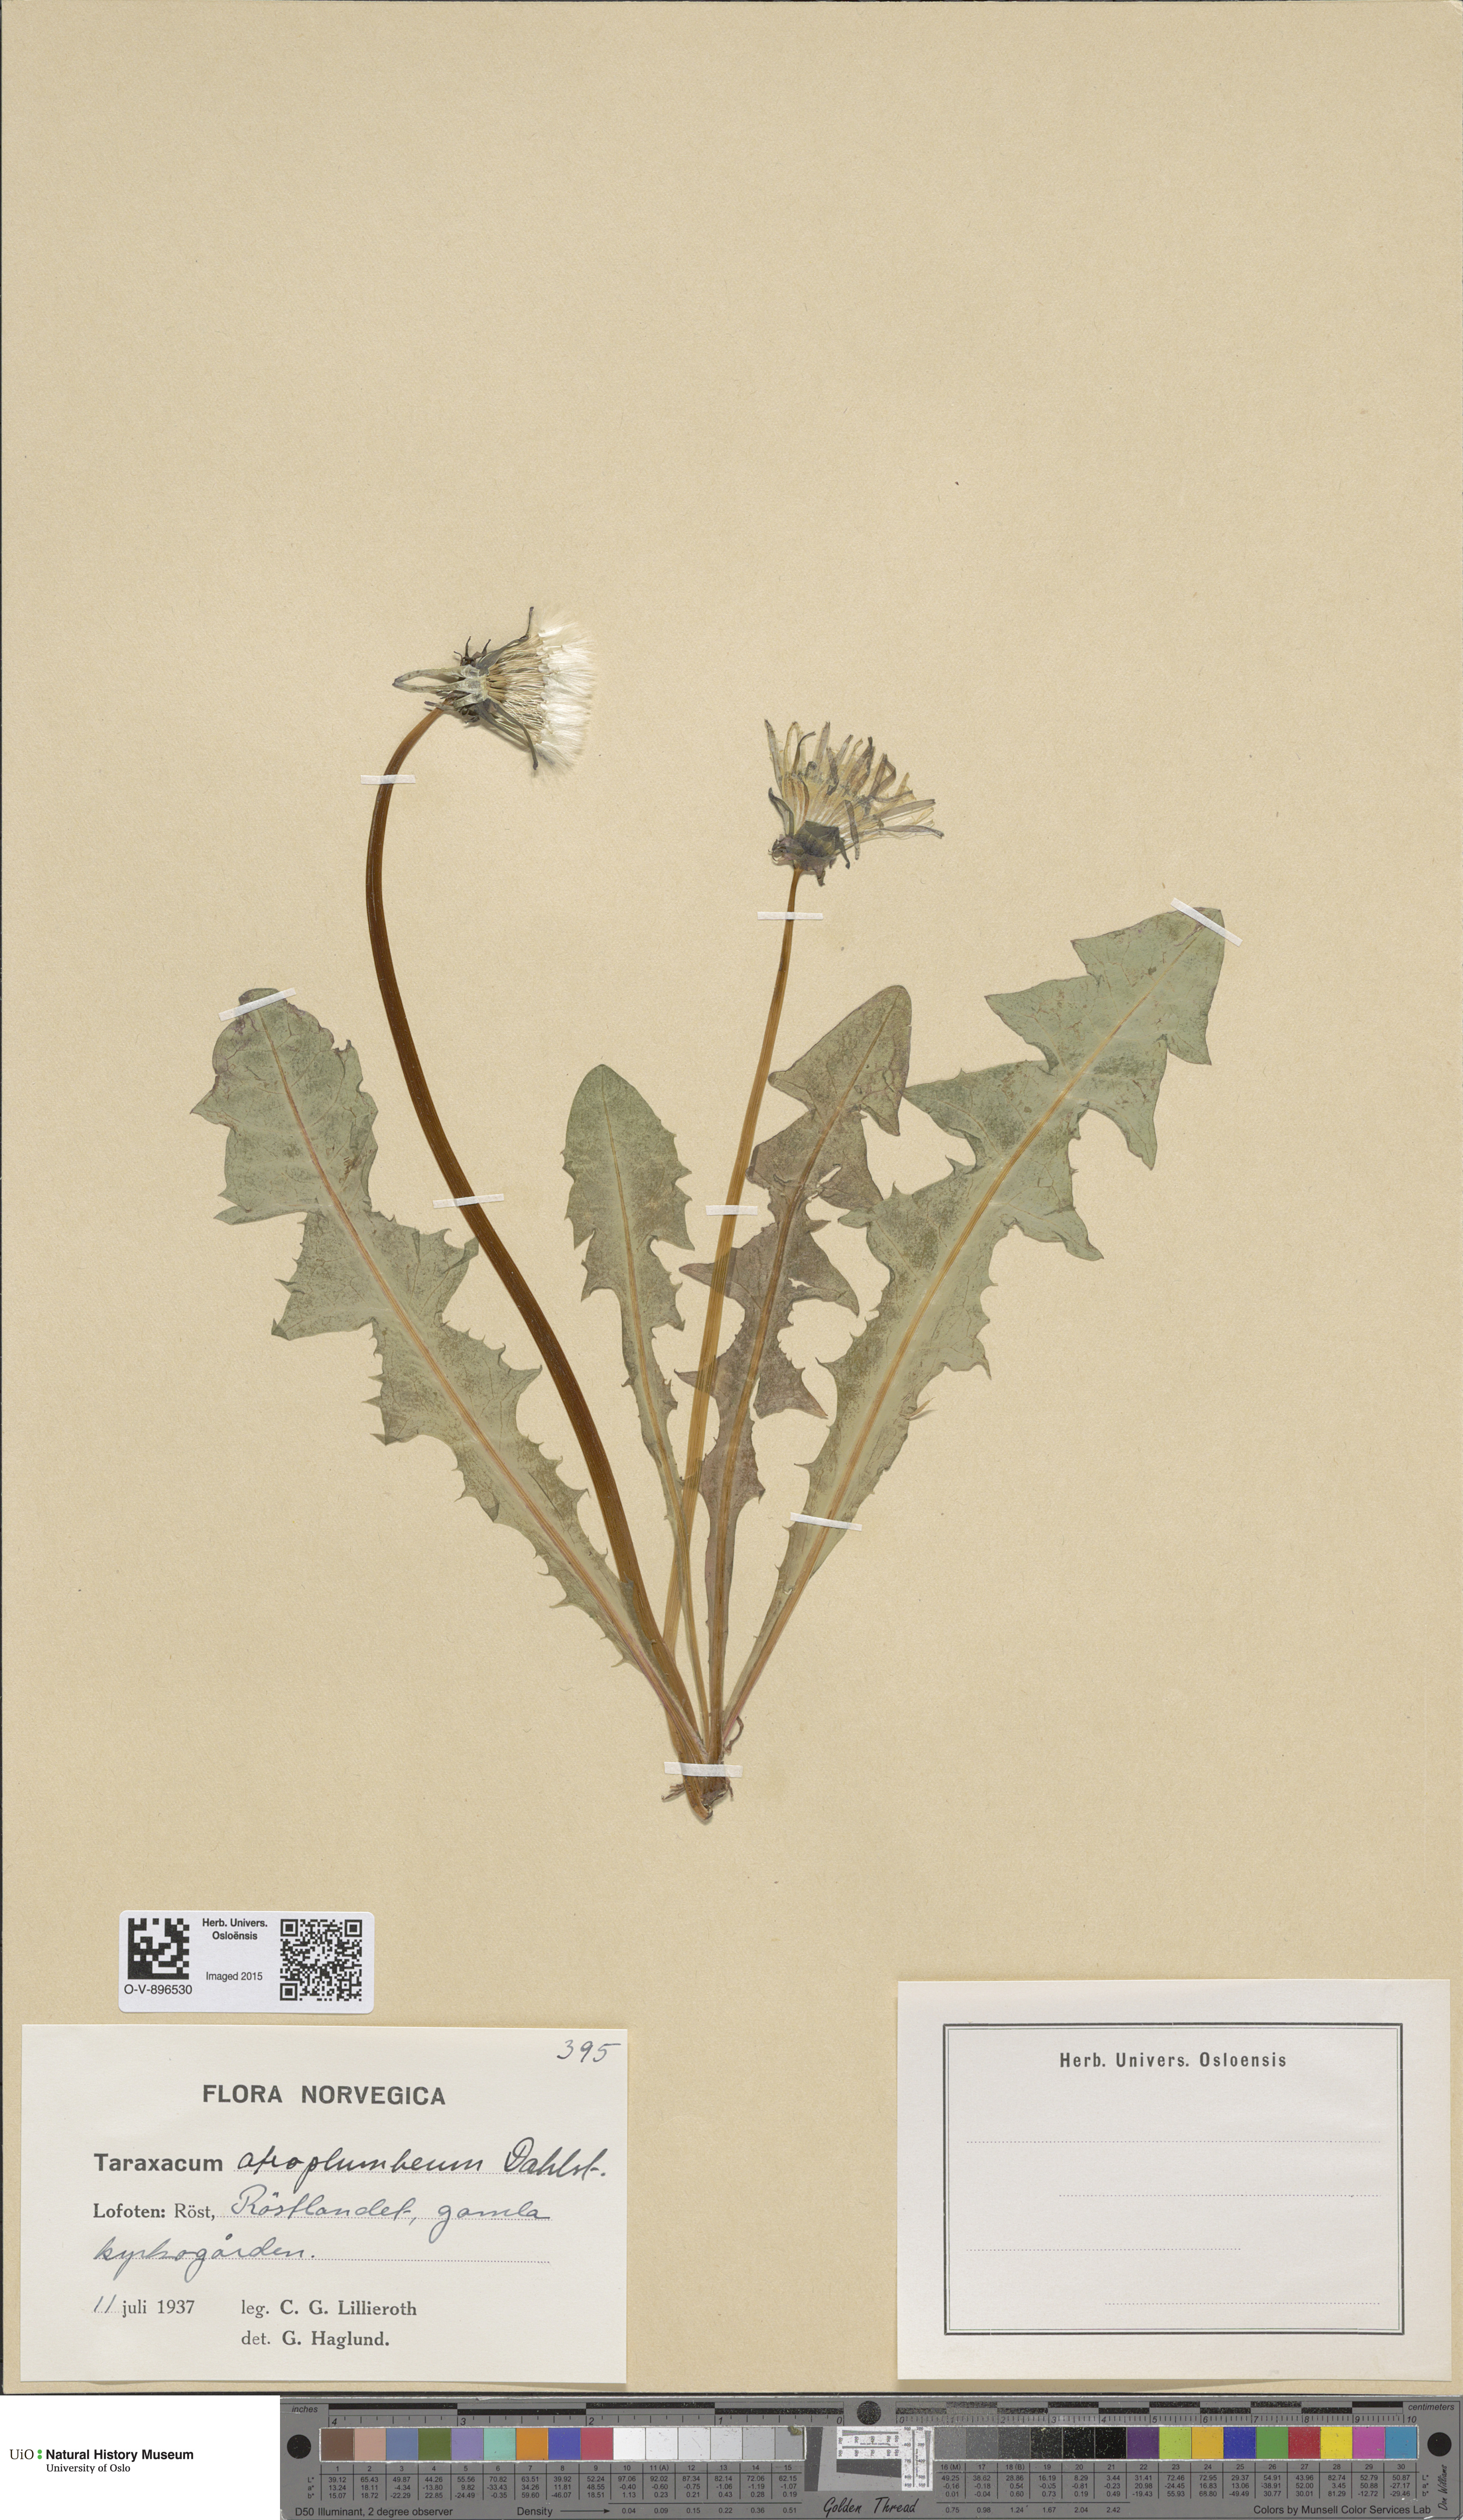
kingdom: Plantae
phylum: Tracheophyta
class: Magnoliopsida
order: Asterales
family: Asteraceae
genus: Taraxacum
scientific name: Taraxacum atroplumbeum
